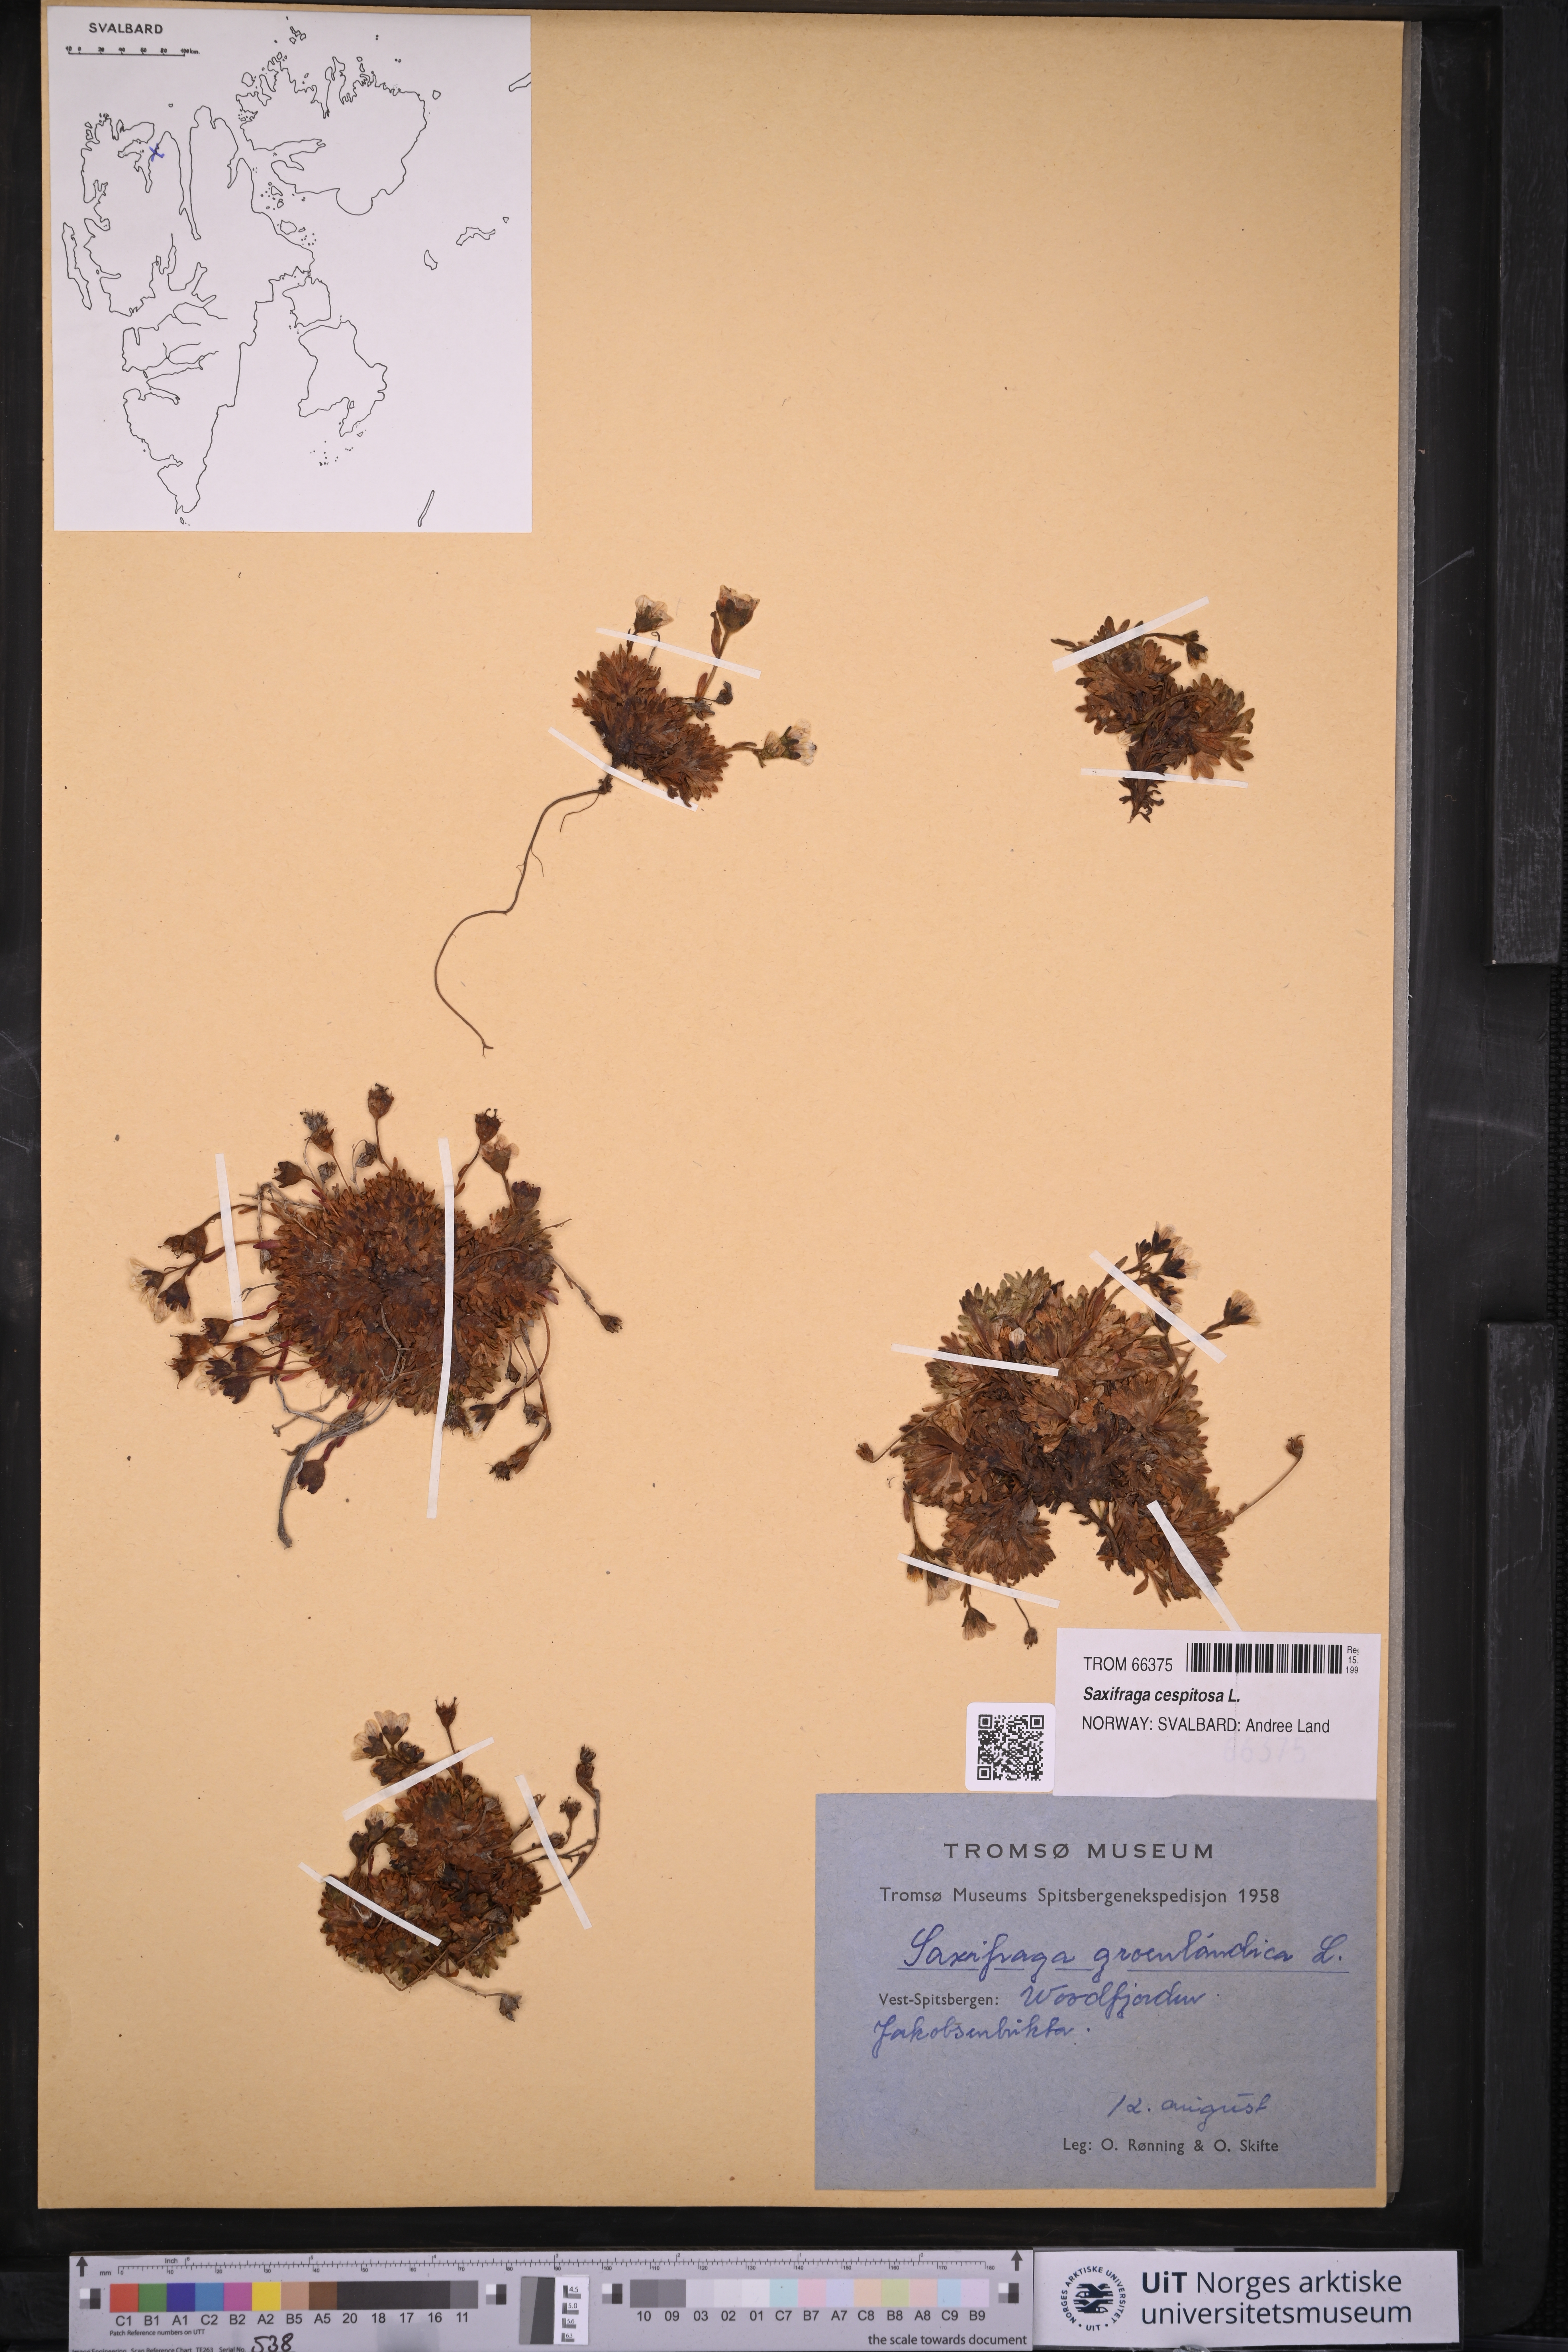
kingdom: Plantae
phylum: Tracheophyta
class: Magnoliopsida
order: Saxifragales
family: Saxifragaceae
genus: Saxifraga
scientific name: Saxifraga cespitosa
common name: Tufted saxifrage
